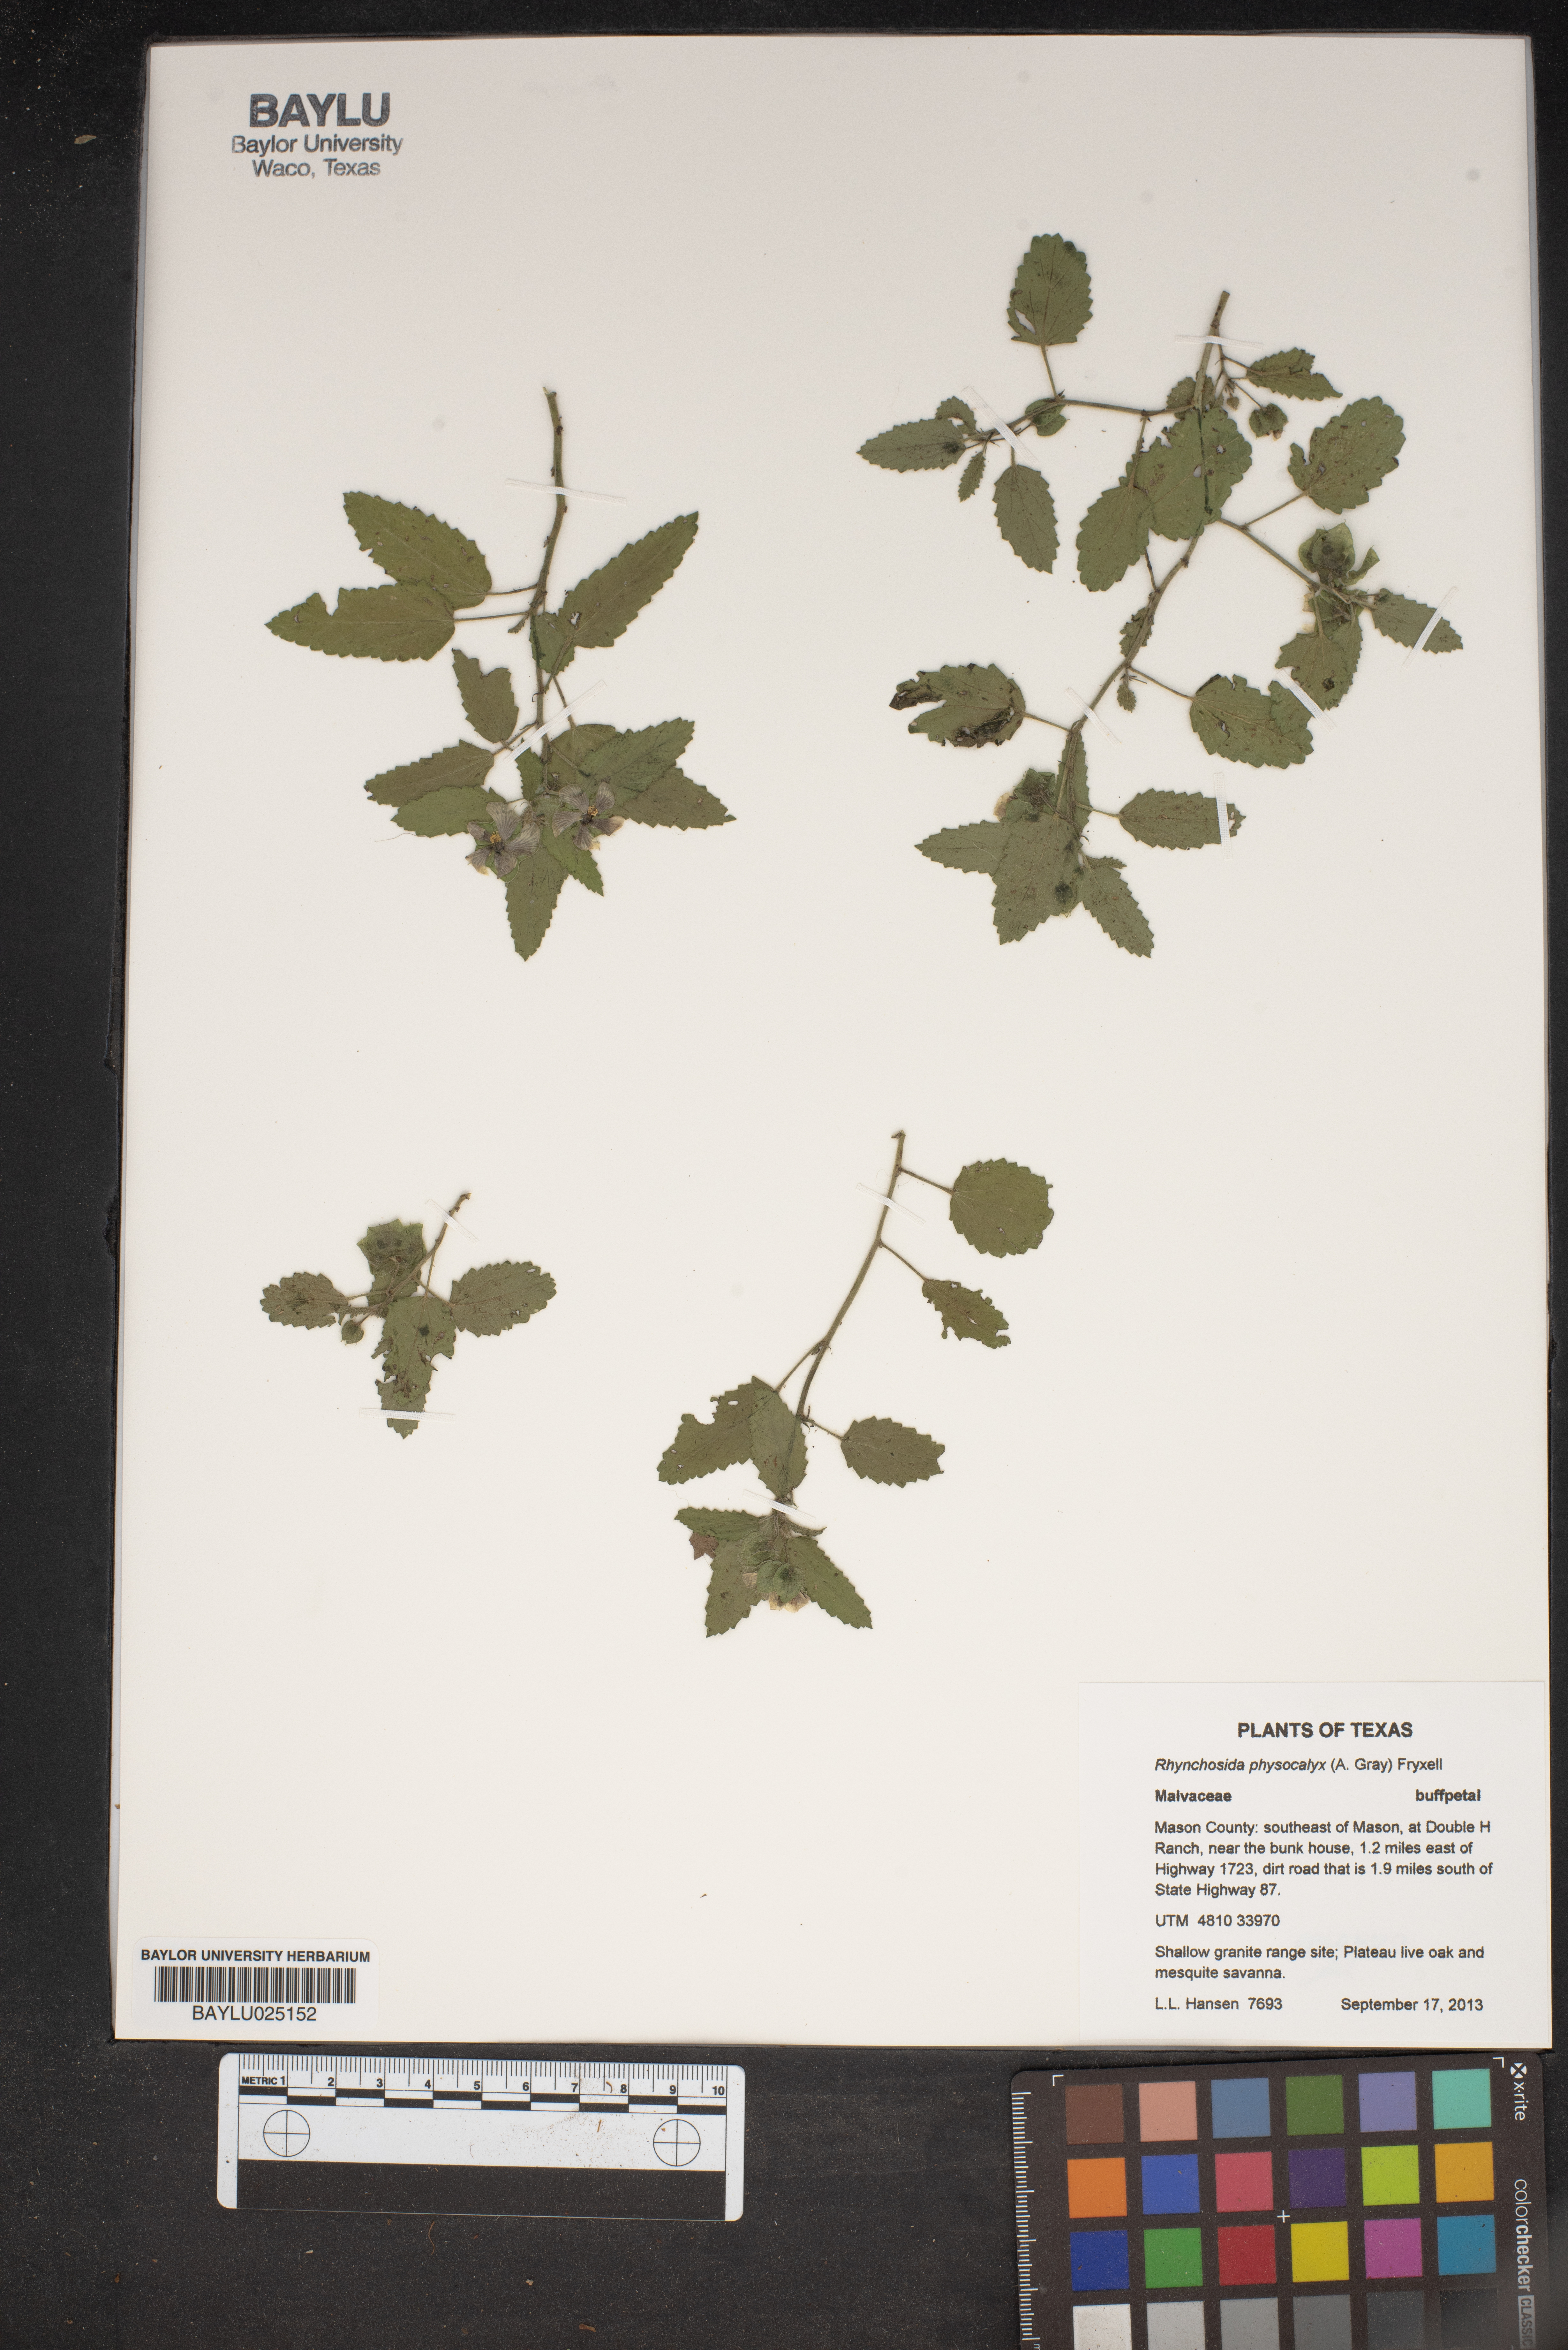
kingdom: Plantae
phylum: Tracheophyta
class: Magnoliopsida
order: Malvales
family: Malvaceae
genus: Rhynchosida
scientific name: Rhynchosida physocalyx
